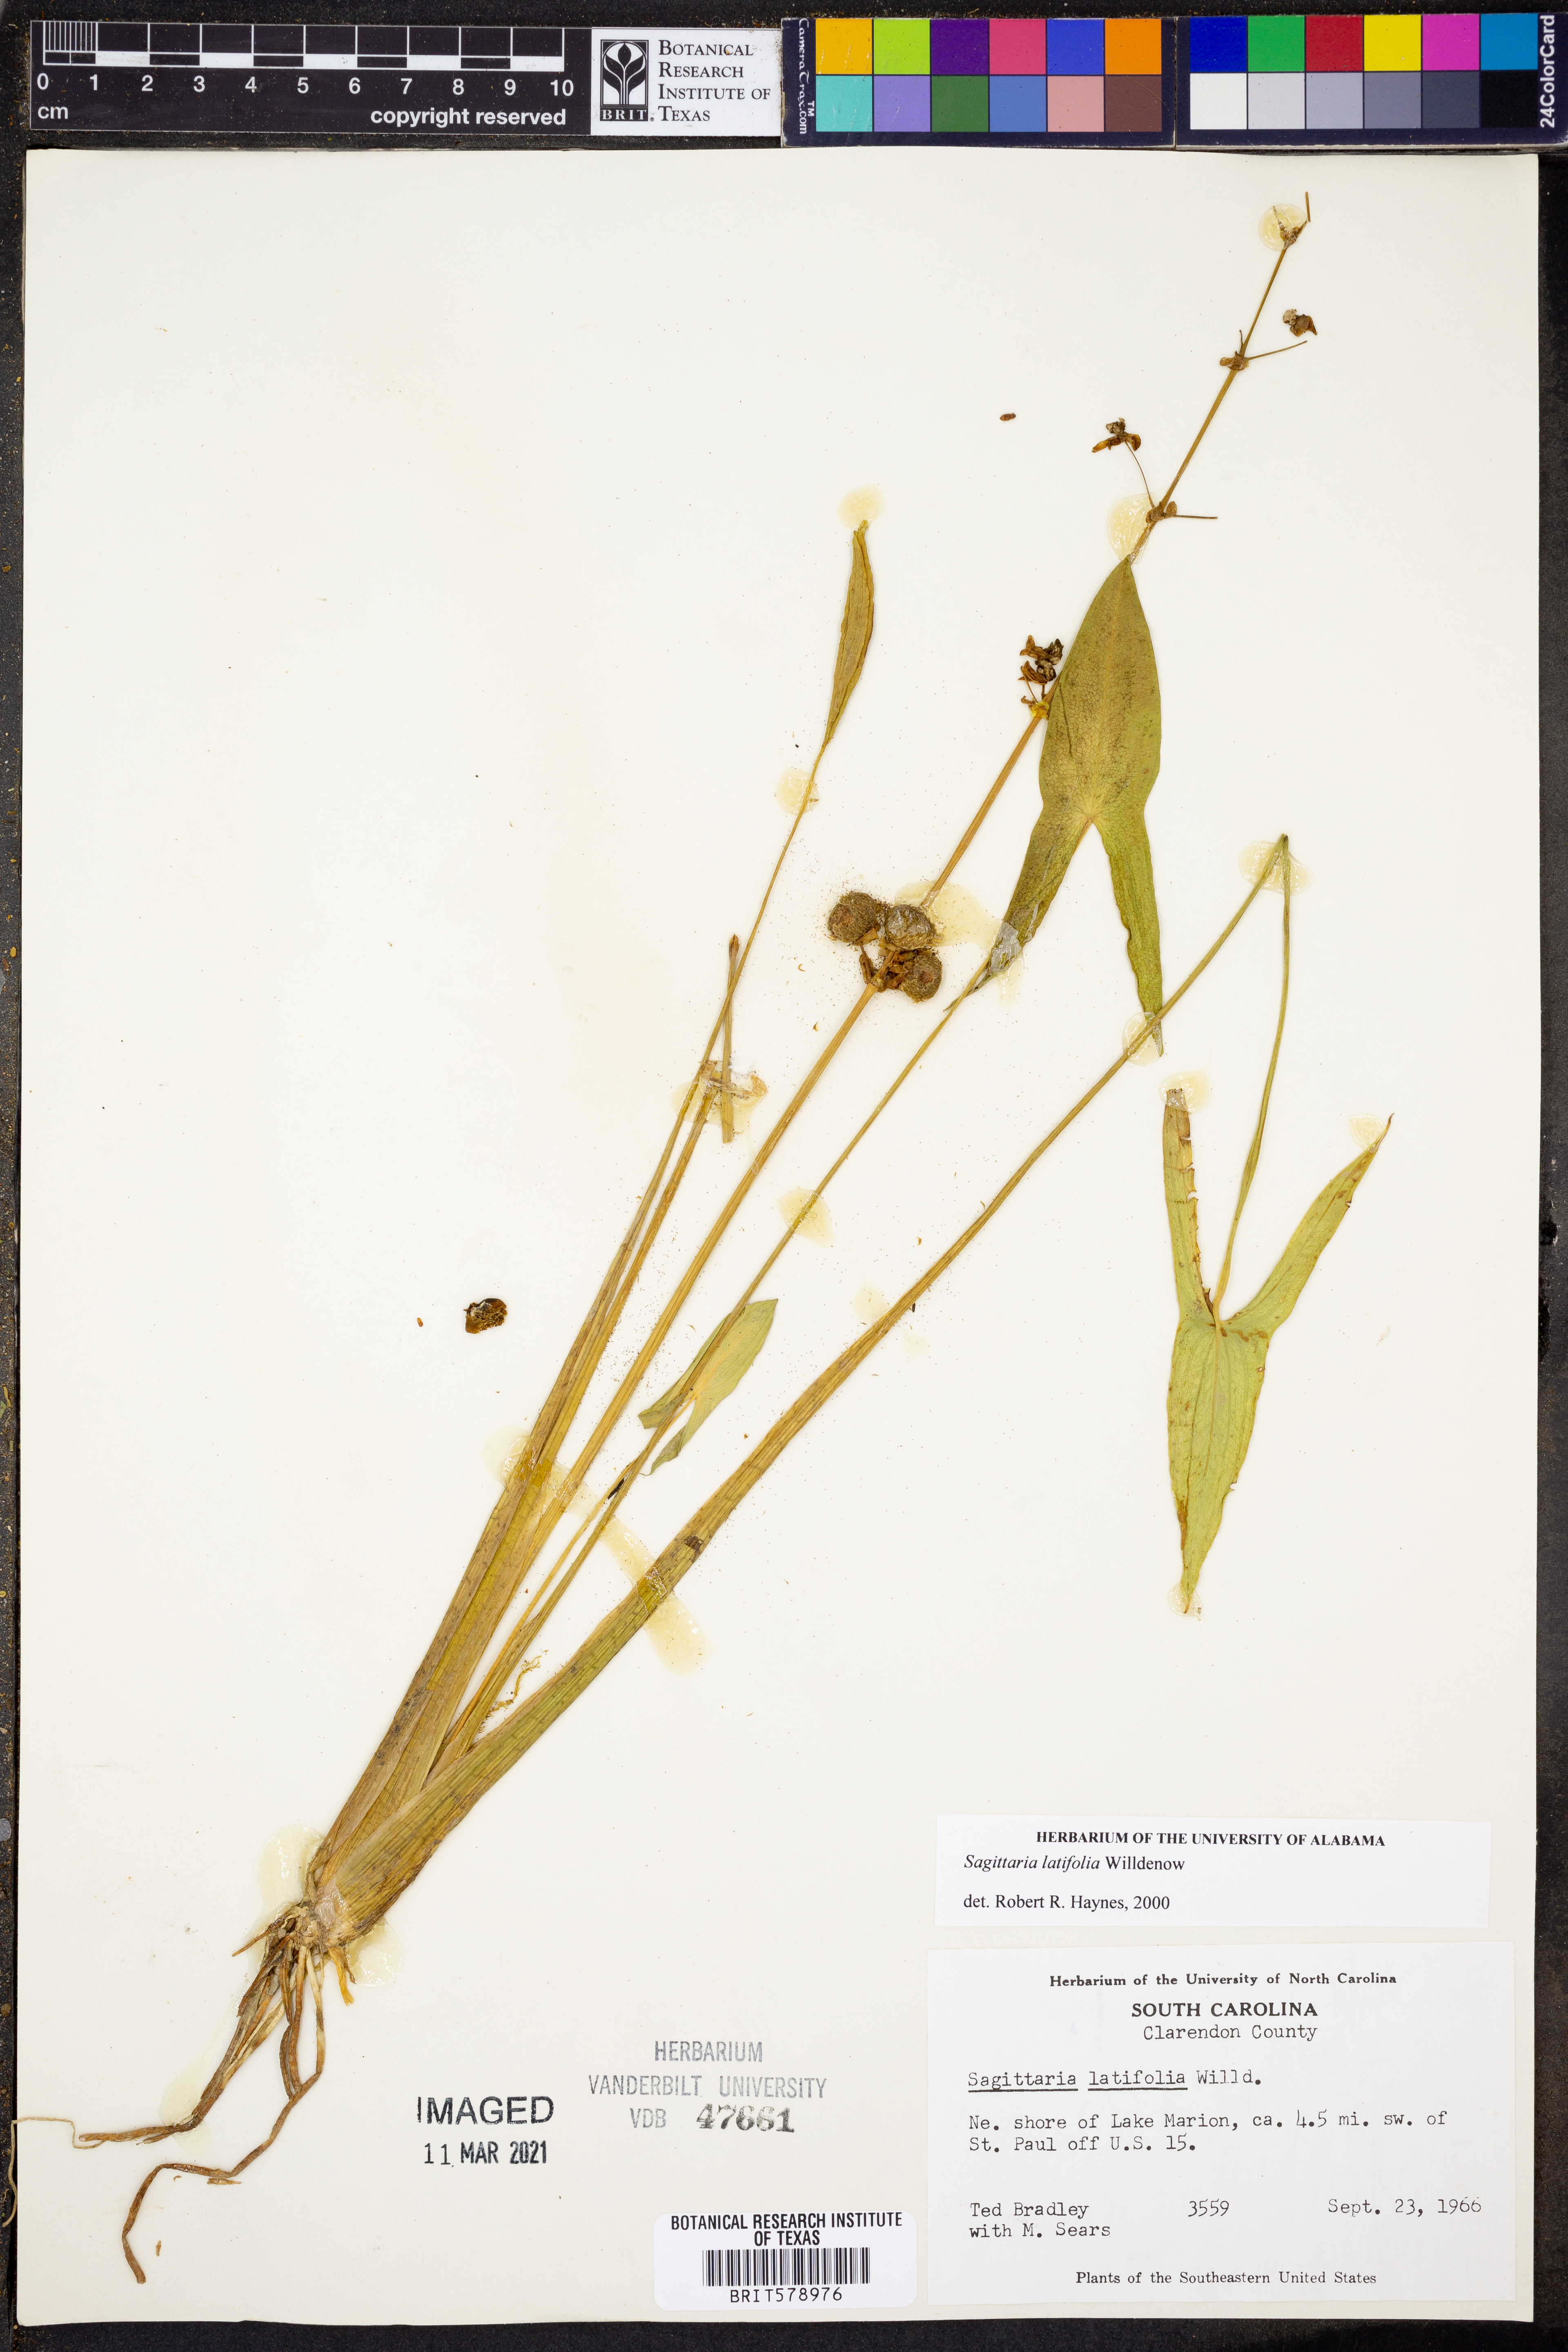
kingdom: Plantae
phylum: Tracheophyta
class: Liliopsida
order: Alismatales
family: Alismataceae
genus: Sagittaria
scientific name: Sagittaria latifolia
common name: Duck-potato
